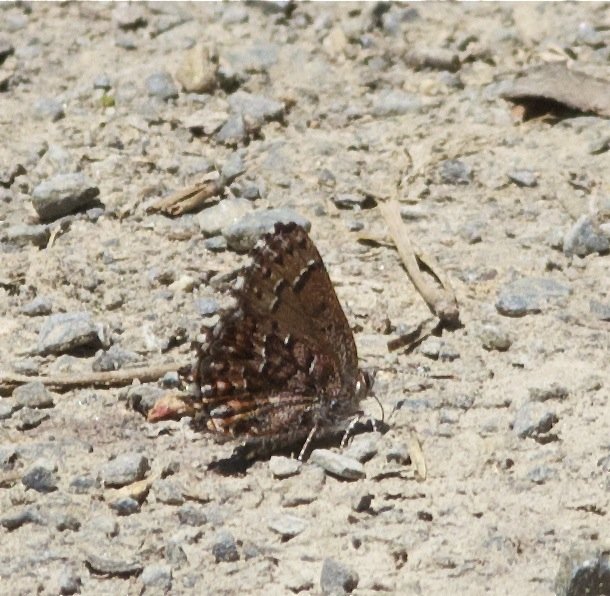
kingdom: Animalia
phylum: Arthropoda
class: Insecta
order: Lepidoptera
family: Lycaenidae
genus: Incisalia
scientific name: Incisalia niphon
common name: Eastern Pine Elfin
